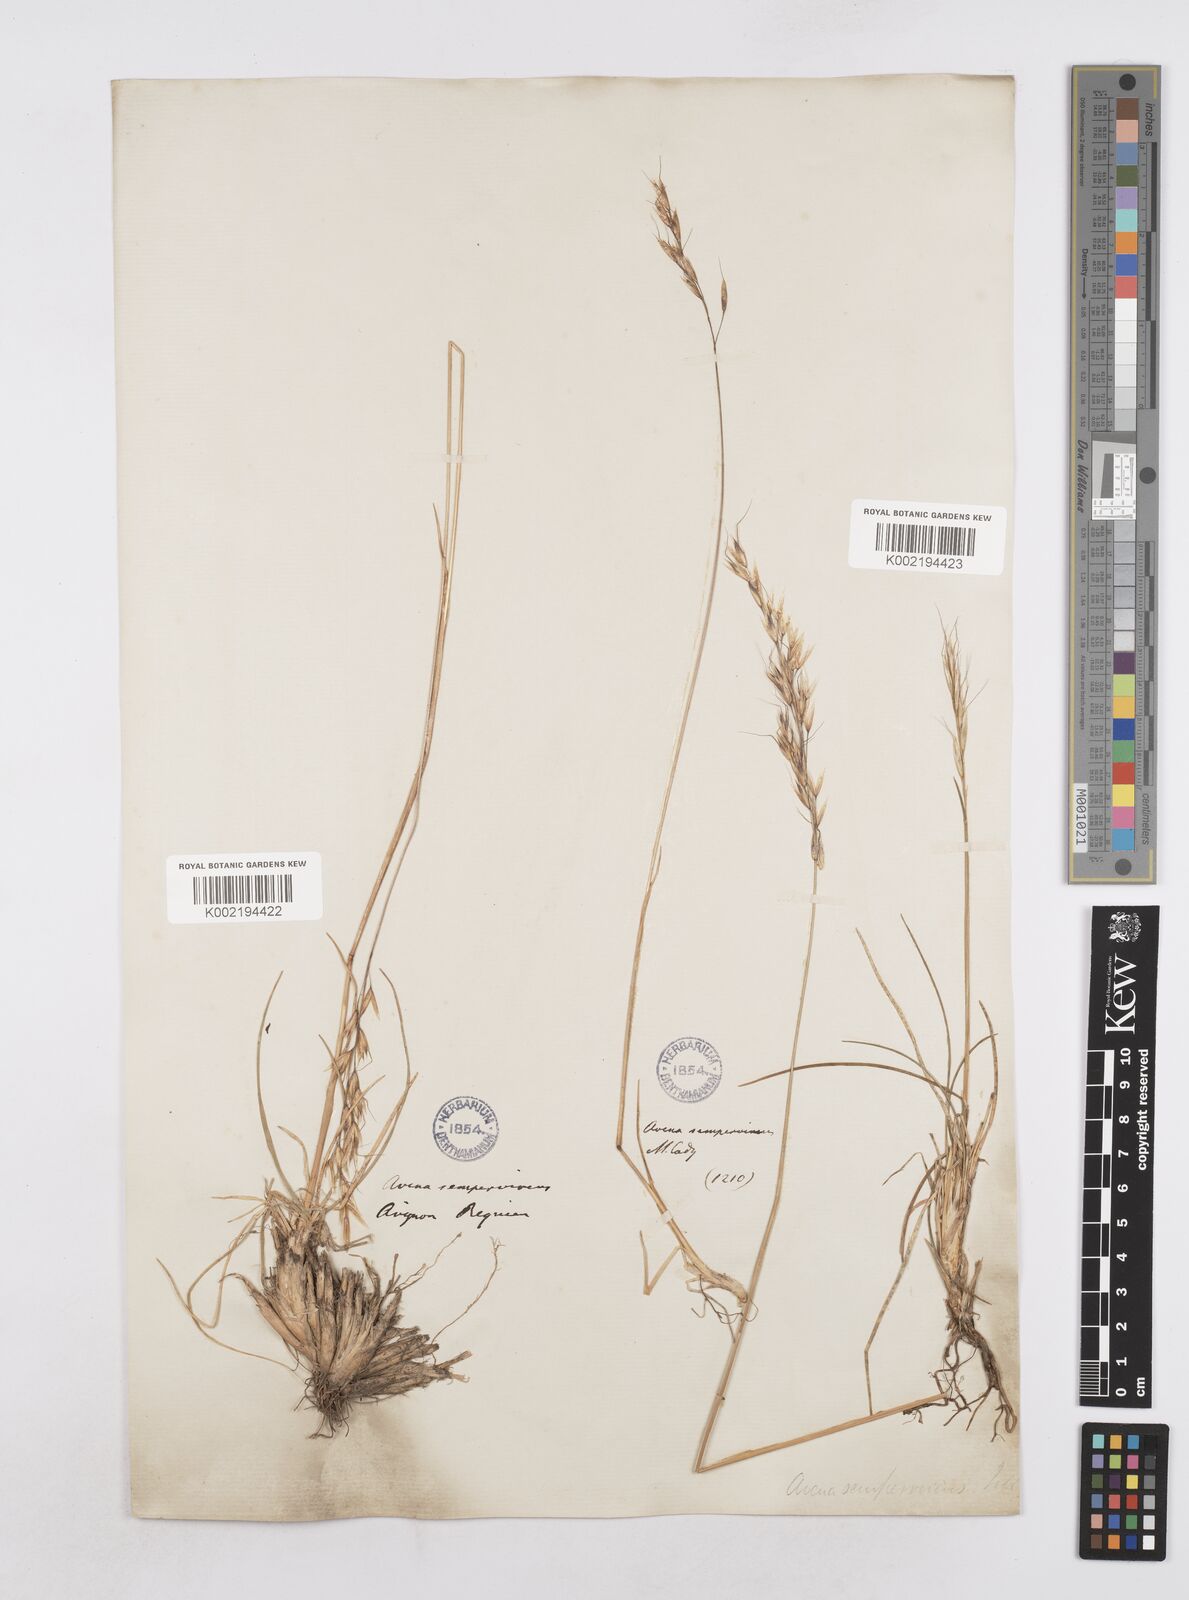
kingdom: Plantae
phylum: Tracheophyta
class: Liliopsida
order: Poales
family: Poaceae
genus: Helictotrichon
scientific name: Helictotrichon sempervirens
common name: Blue oat-grass
